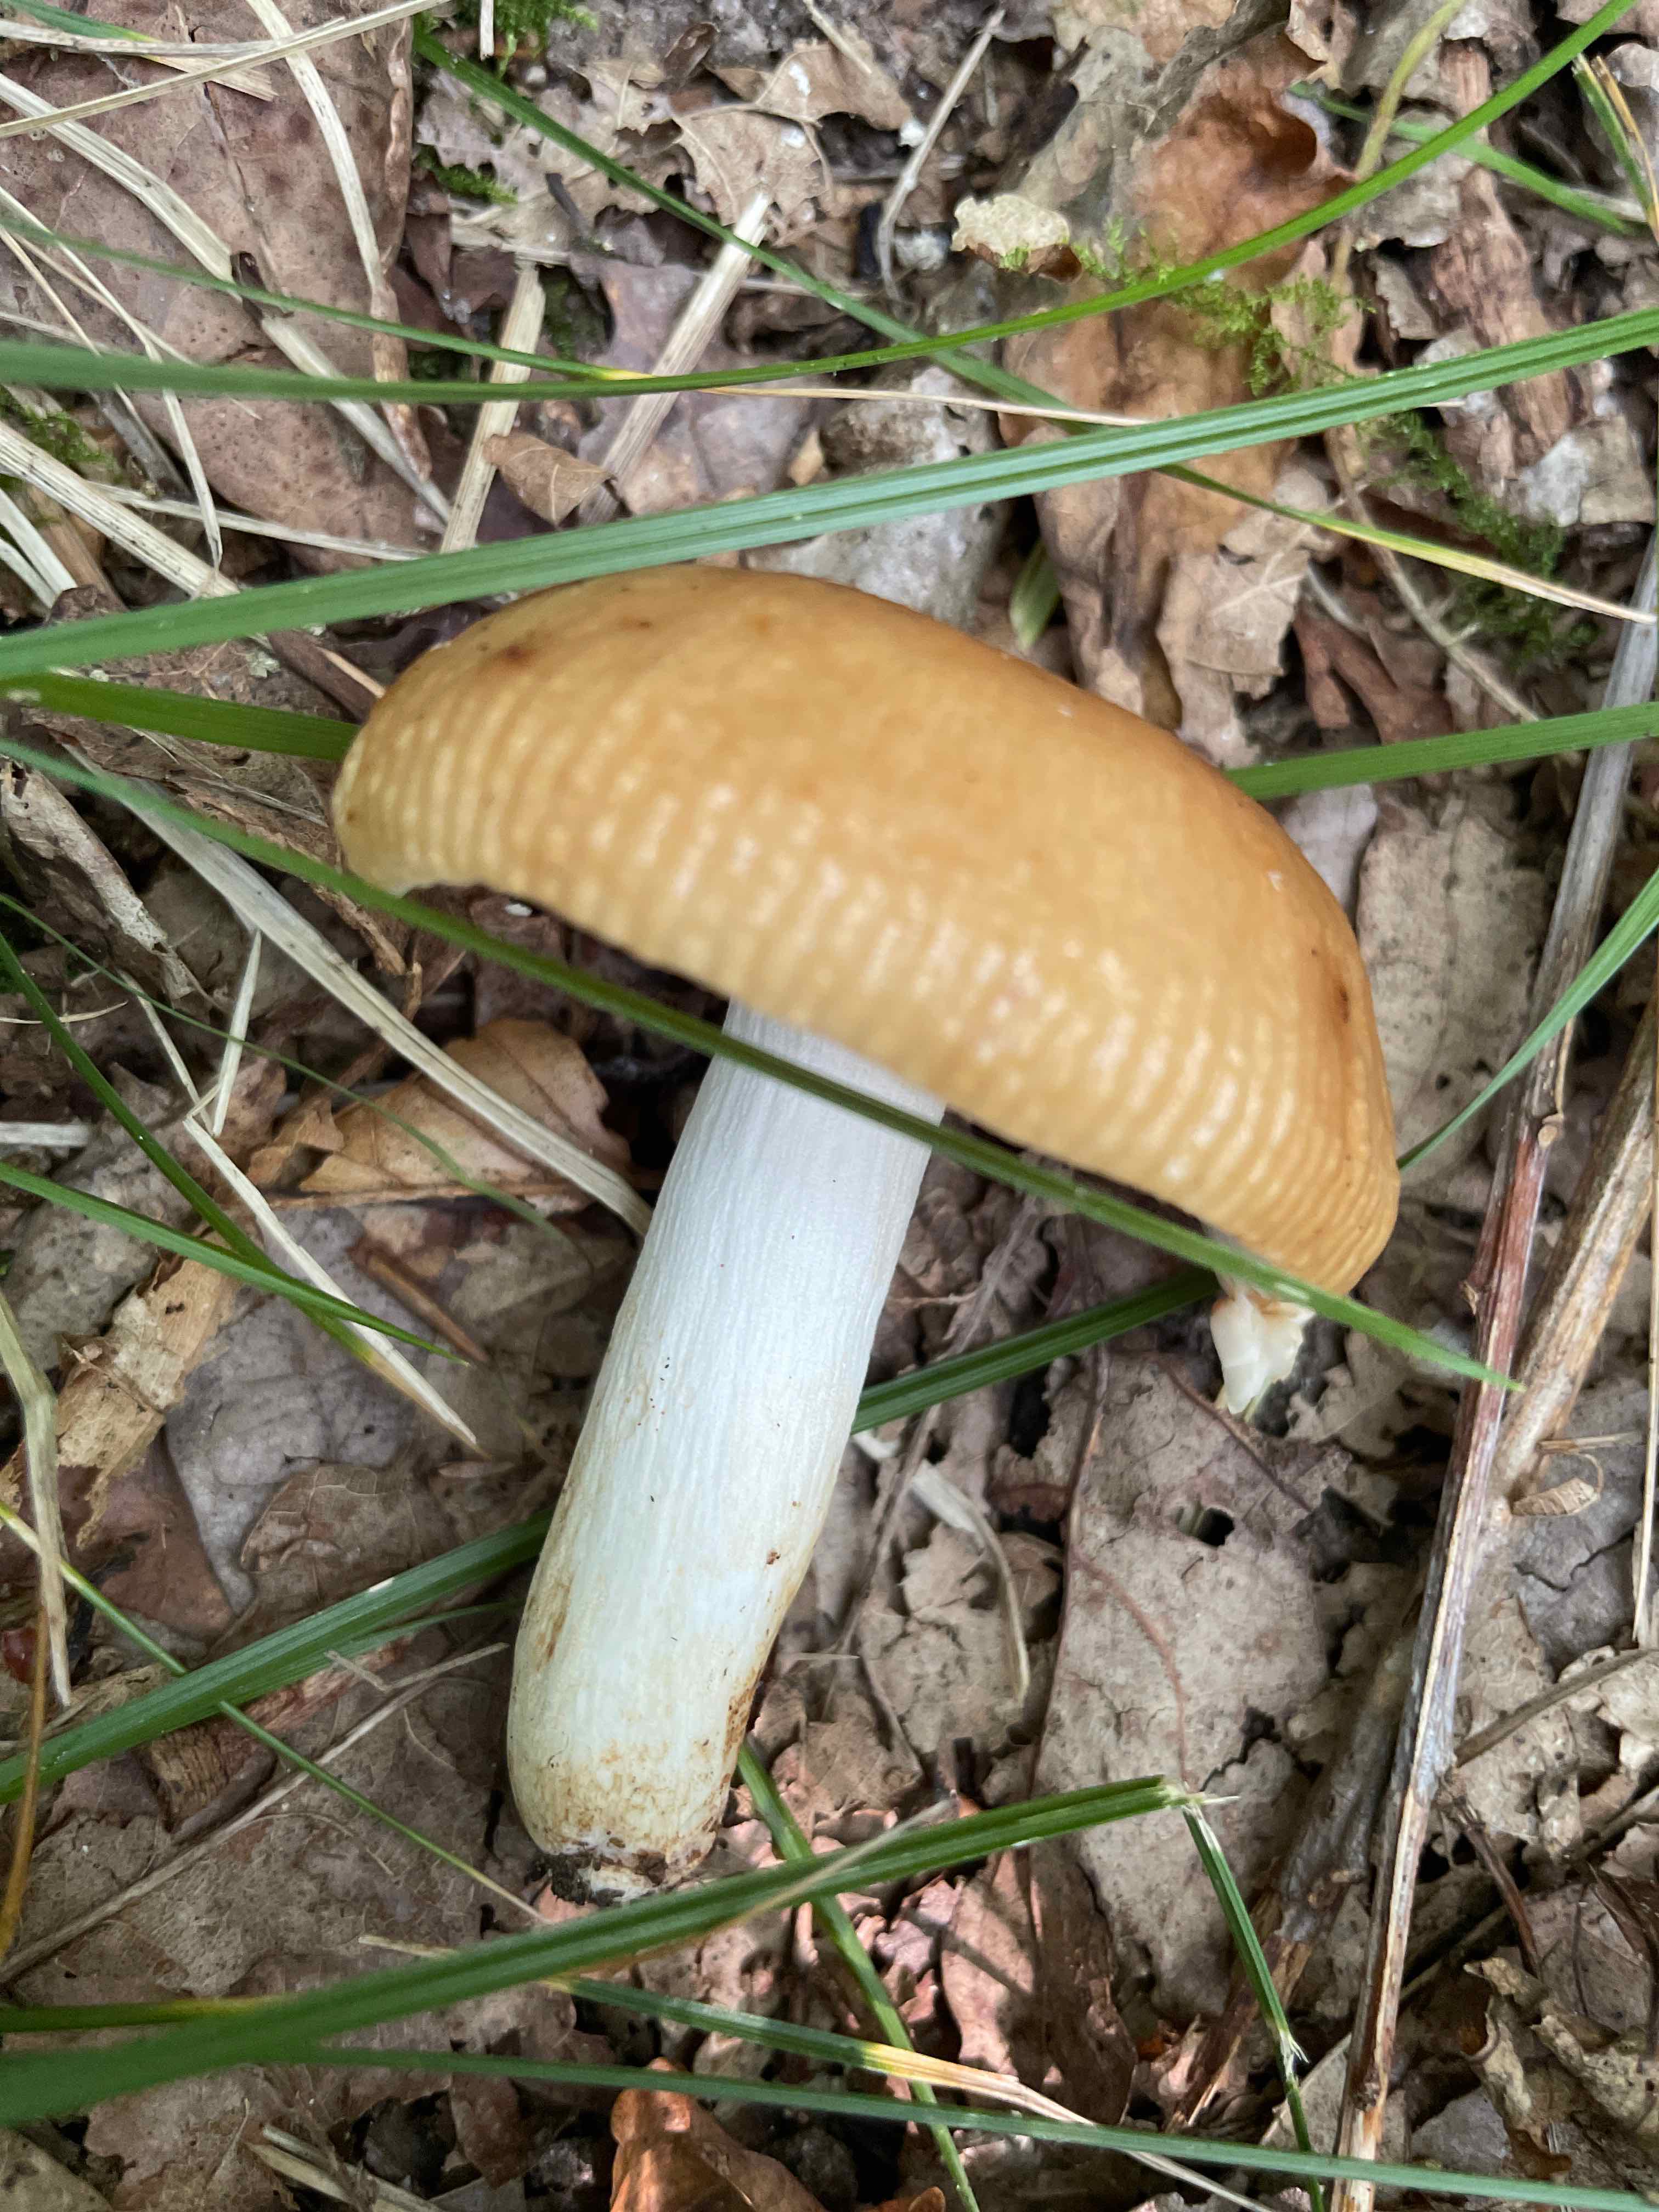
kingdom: Fungi
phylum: Basidiomycota
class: Agaricomycetes
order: Russulales
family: Russulaceae
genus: Russula
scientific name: Russula grata
